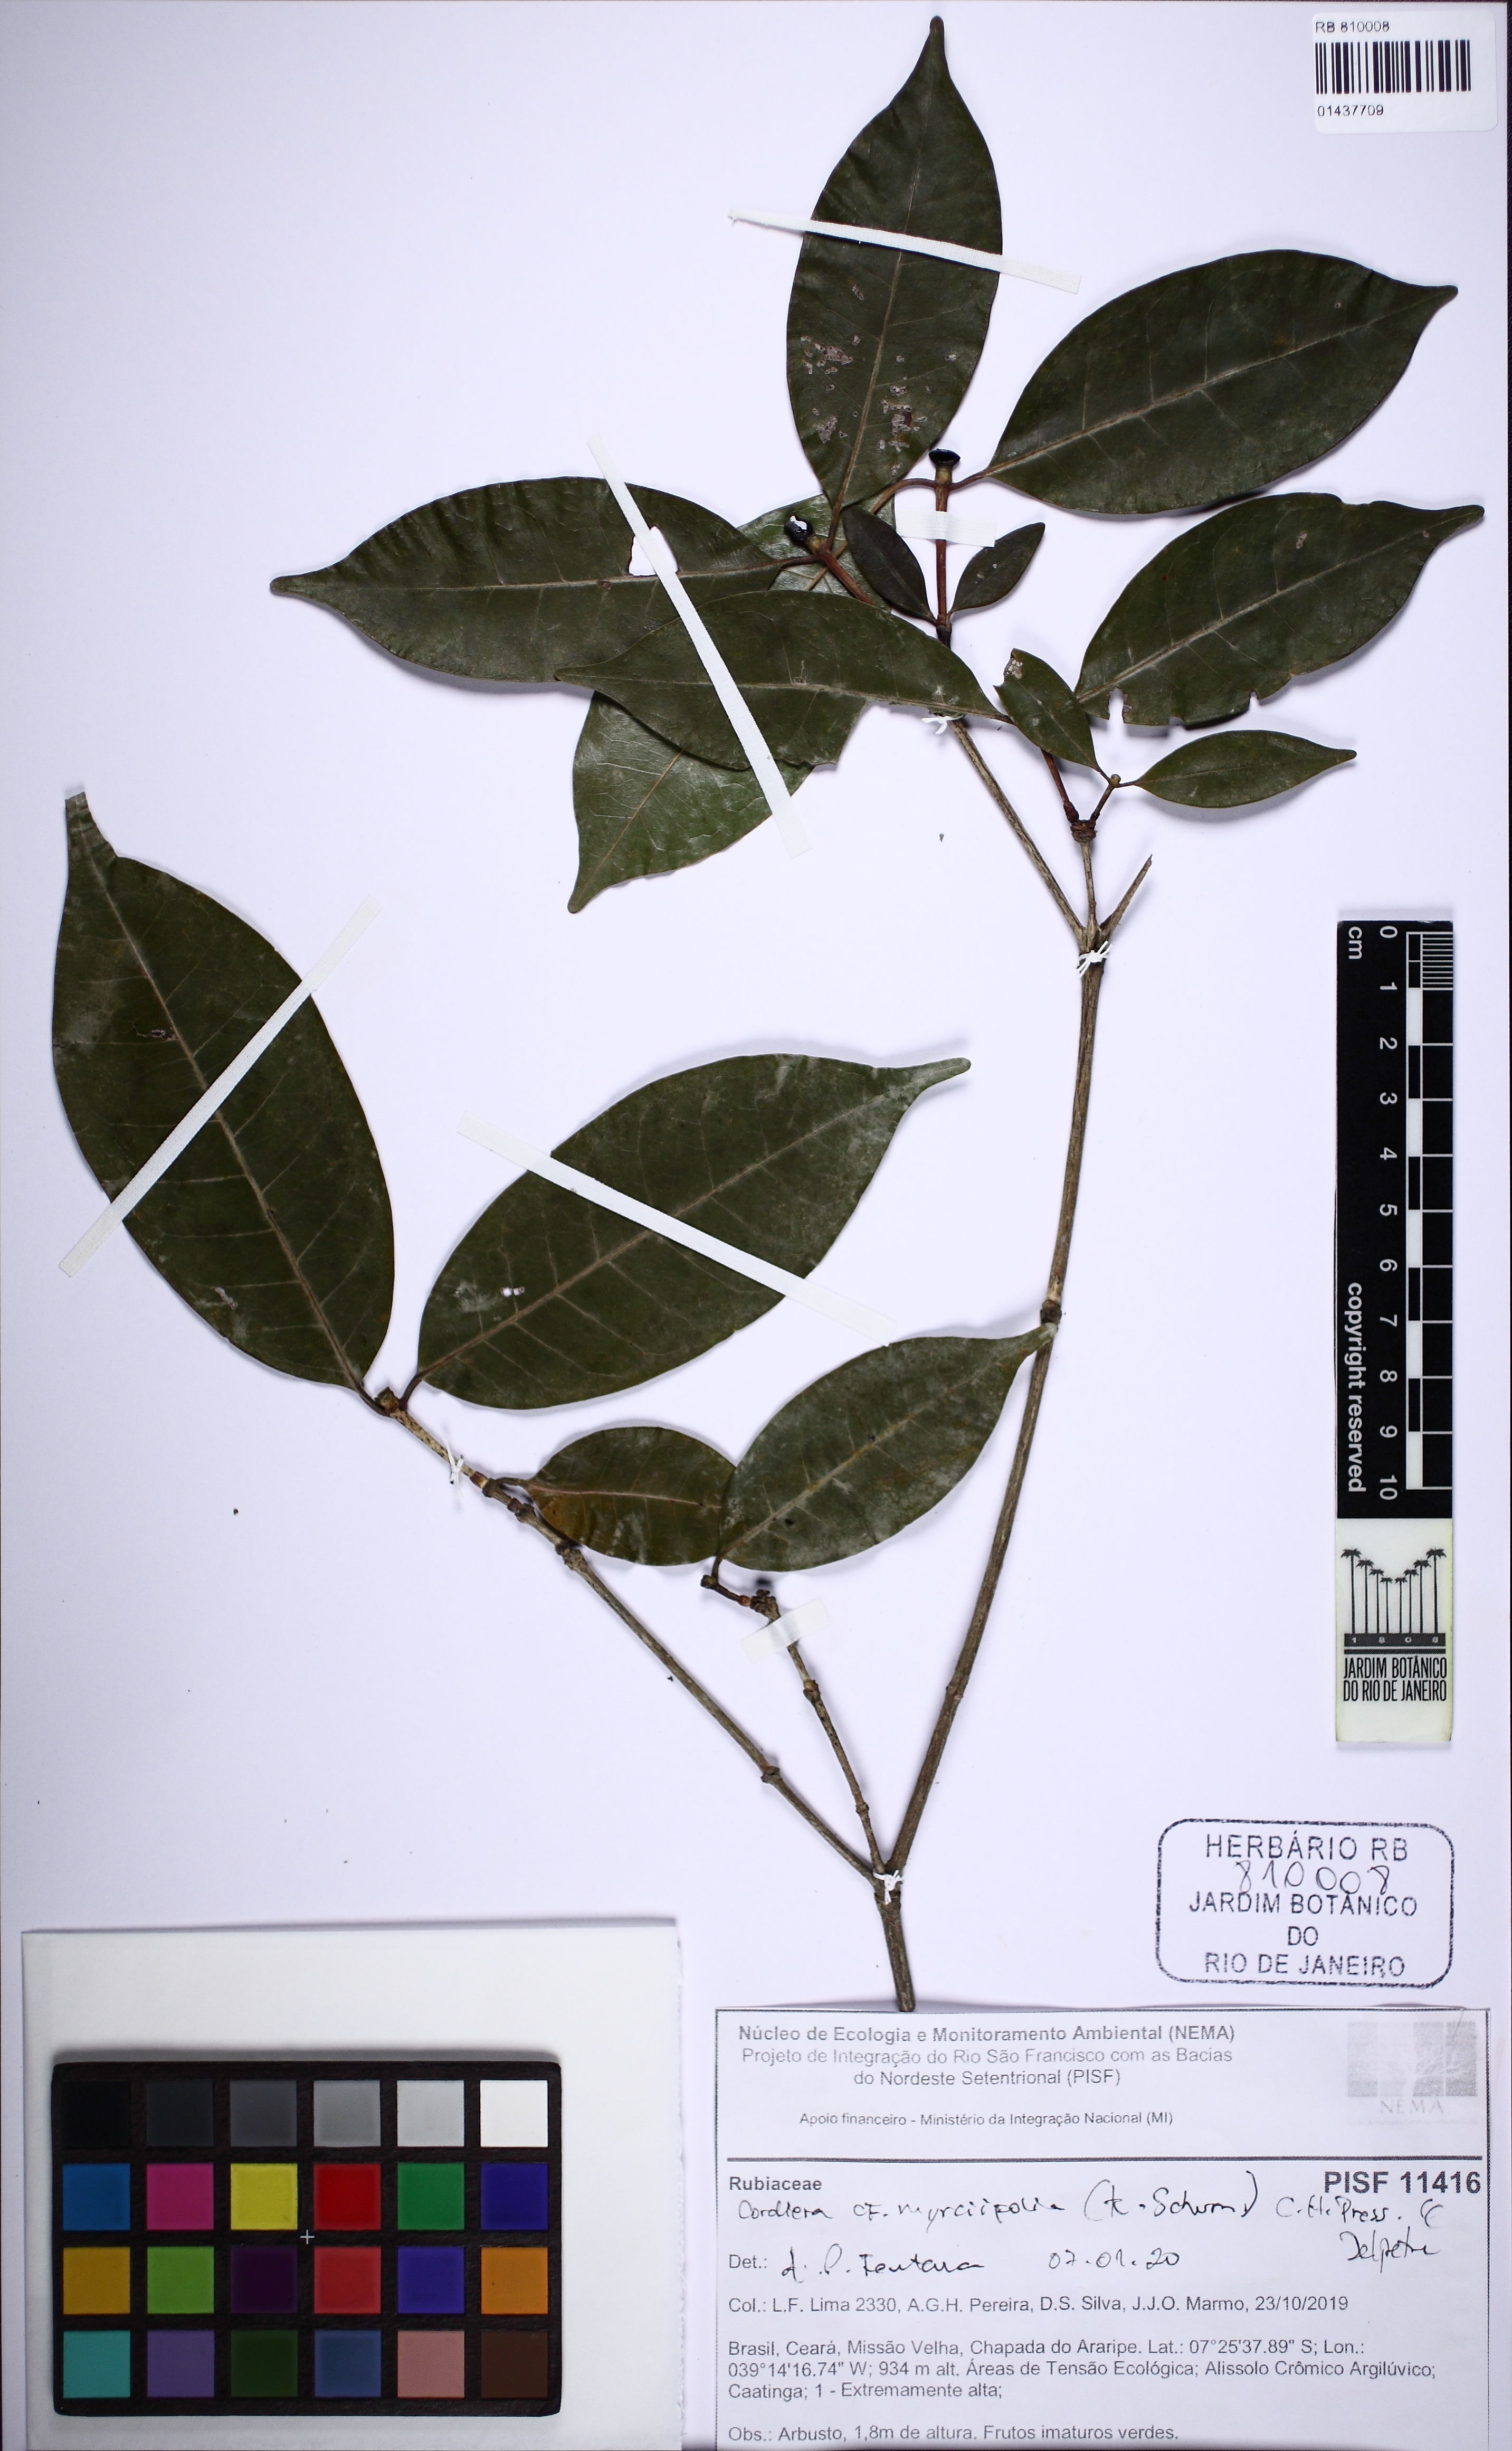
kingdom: Plantae
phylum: Tracheophyta
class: Magnoliopsida
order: Gentianales
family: Rubiaceae
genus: Cordiera
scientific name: Cordiera myrciifolia
